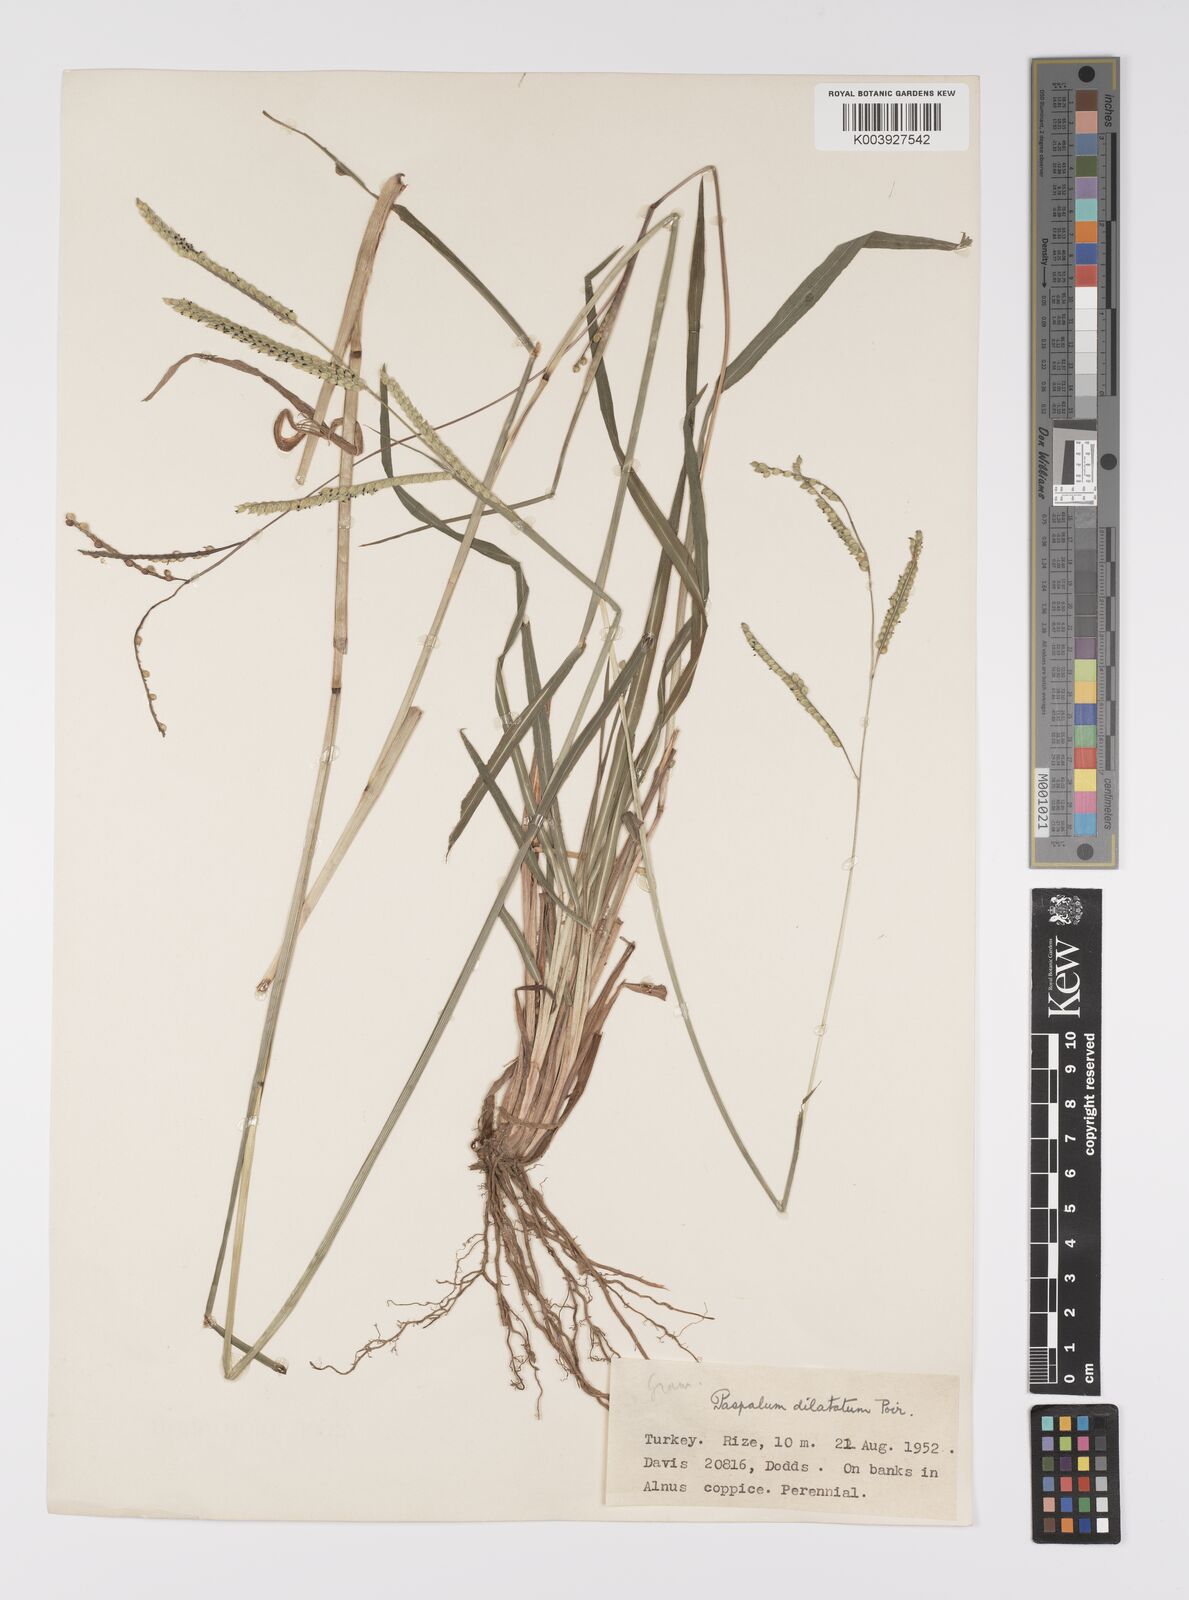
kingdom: Plantae
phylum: Tracheophyta
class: Liliopsida
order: Poales
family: Poaceae
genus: Paspalum
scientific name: Paspalum dilatatum
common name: Dallisgrass
